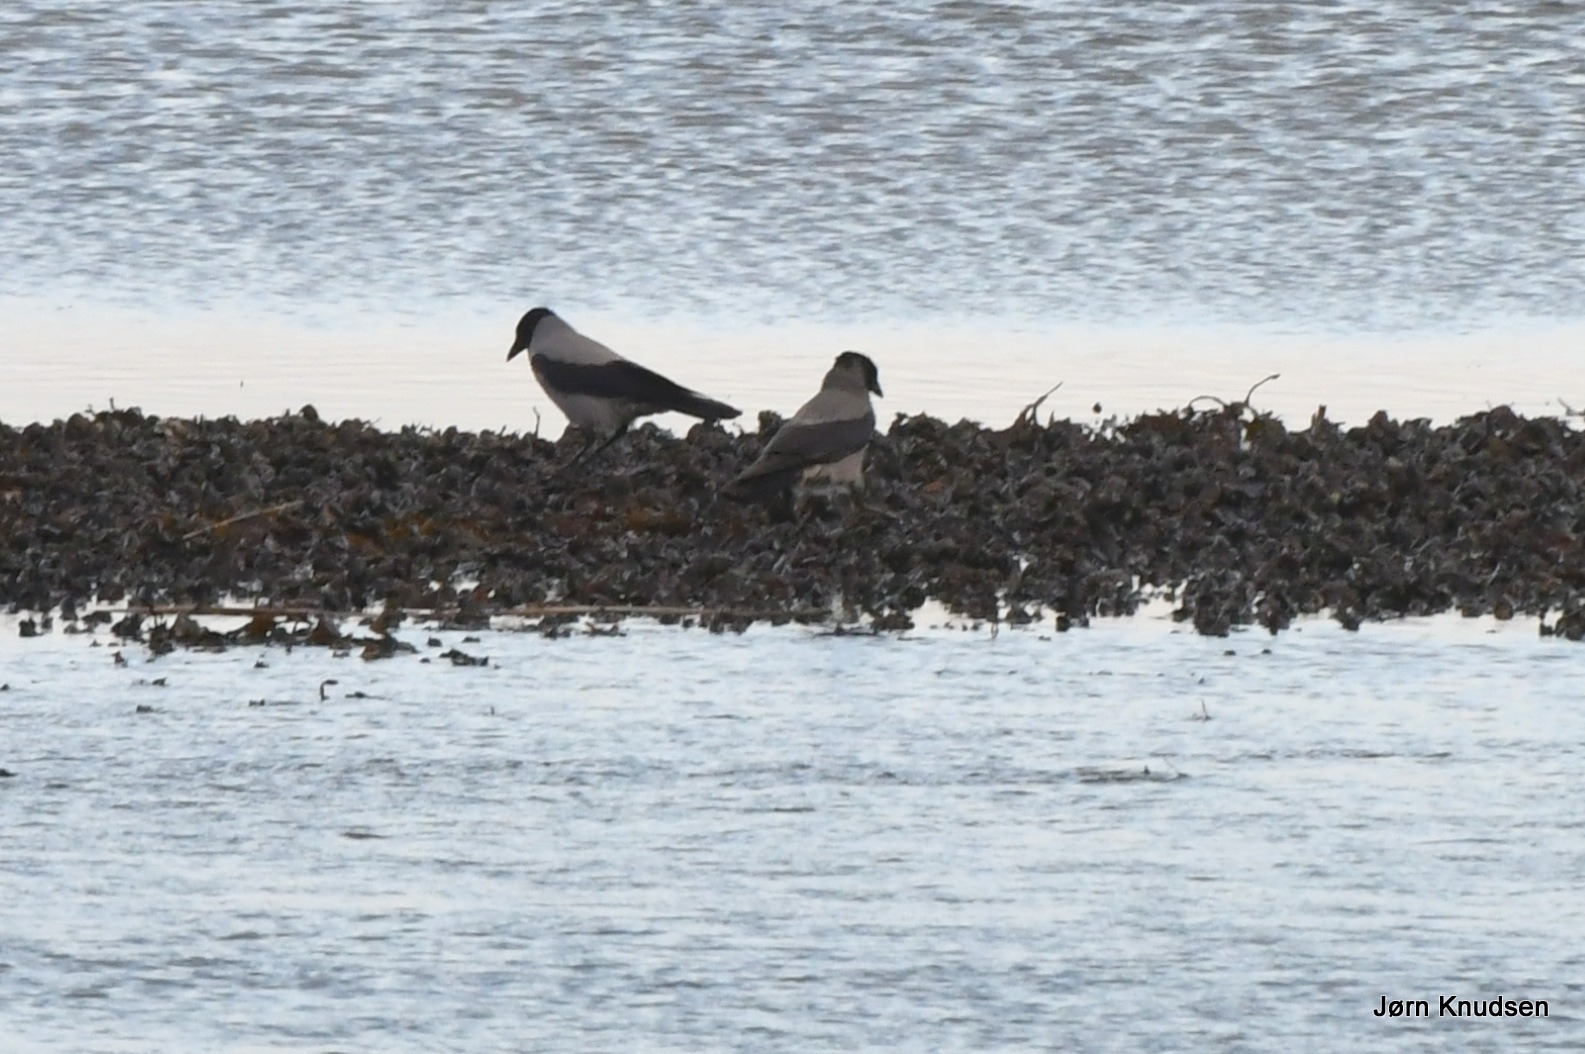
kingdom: Animalia
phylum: Chordata
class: Aves
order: Passeriformes
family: Corvidae
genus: Corvus
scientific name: Corvus cornix
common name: Gråkrage
